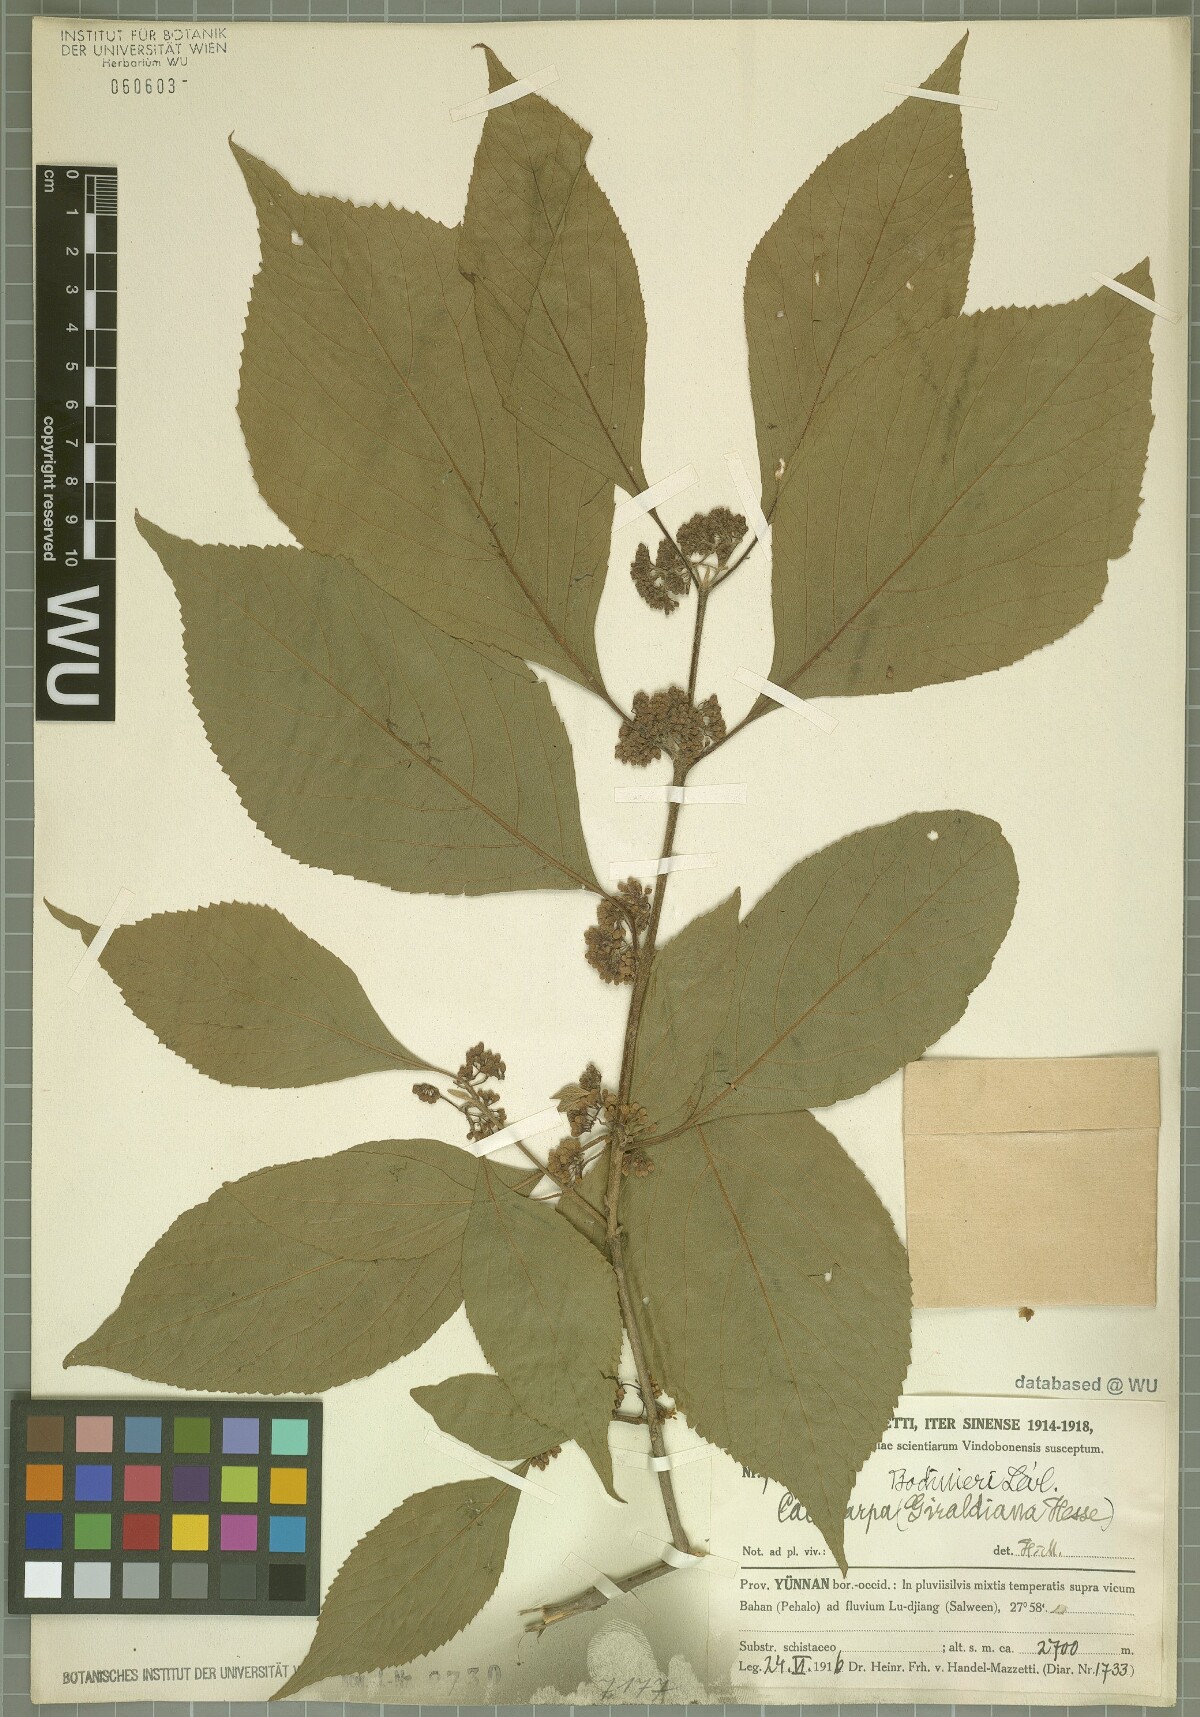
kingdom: Plantae
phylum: Tracheophyta
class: Magnoliopsida
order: Lamiales
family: Lamiaceae
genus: Callicarpa
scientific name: Callicarpa bodinieri
